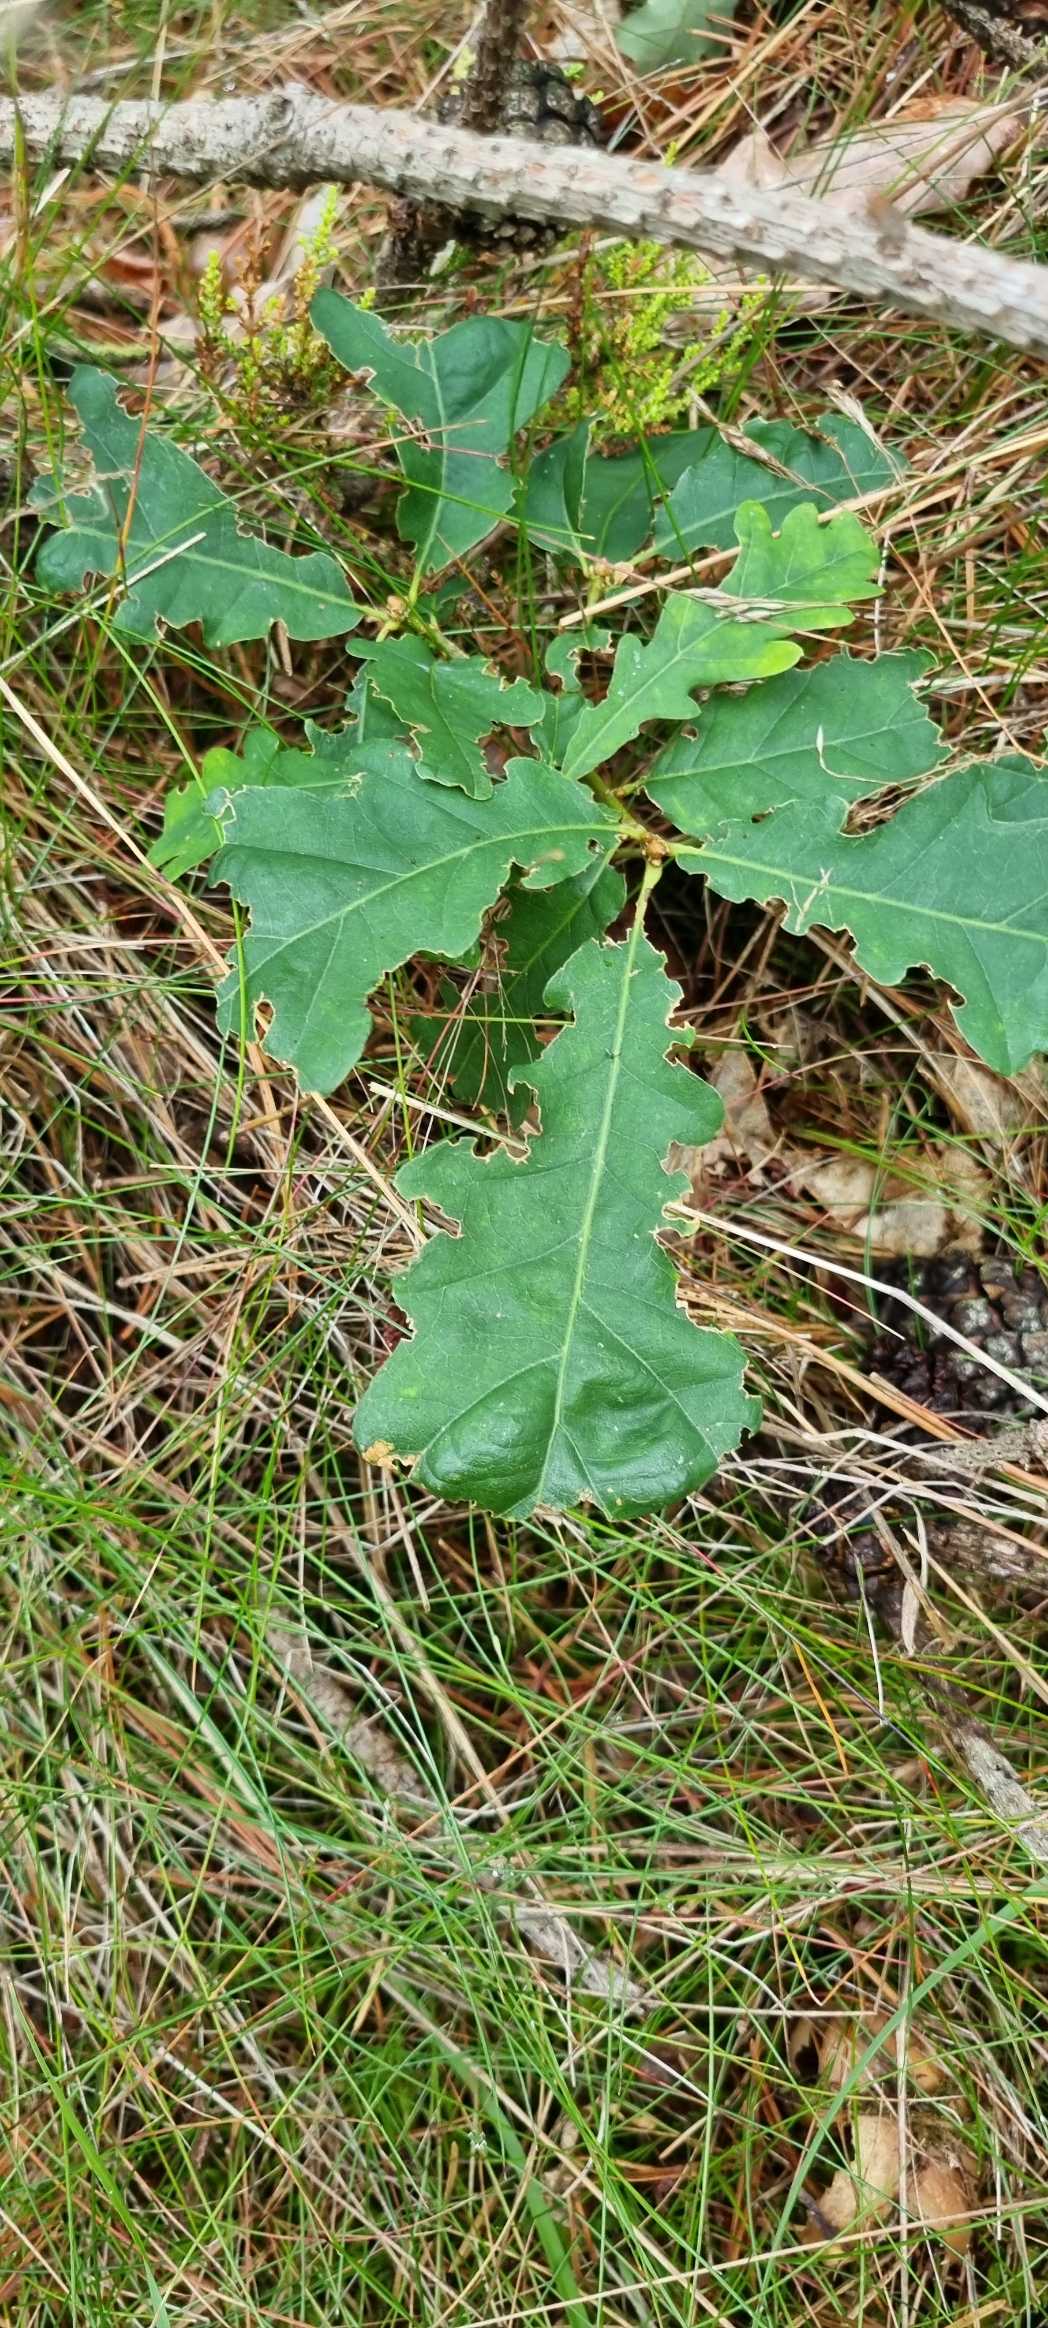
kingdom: Plantae
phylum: Tracheophyta
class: Magnoliopsida
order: Fagales
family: Fagaceae
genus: Quercus
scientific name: Quercus robur
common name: Stilk-eg/almindelig eg
